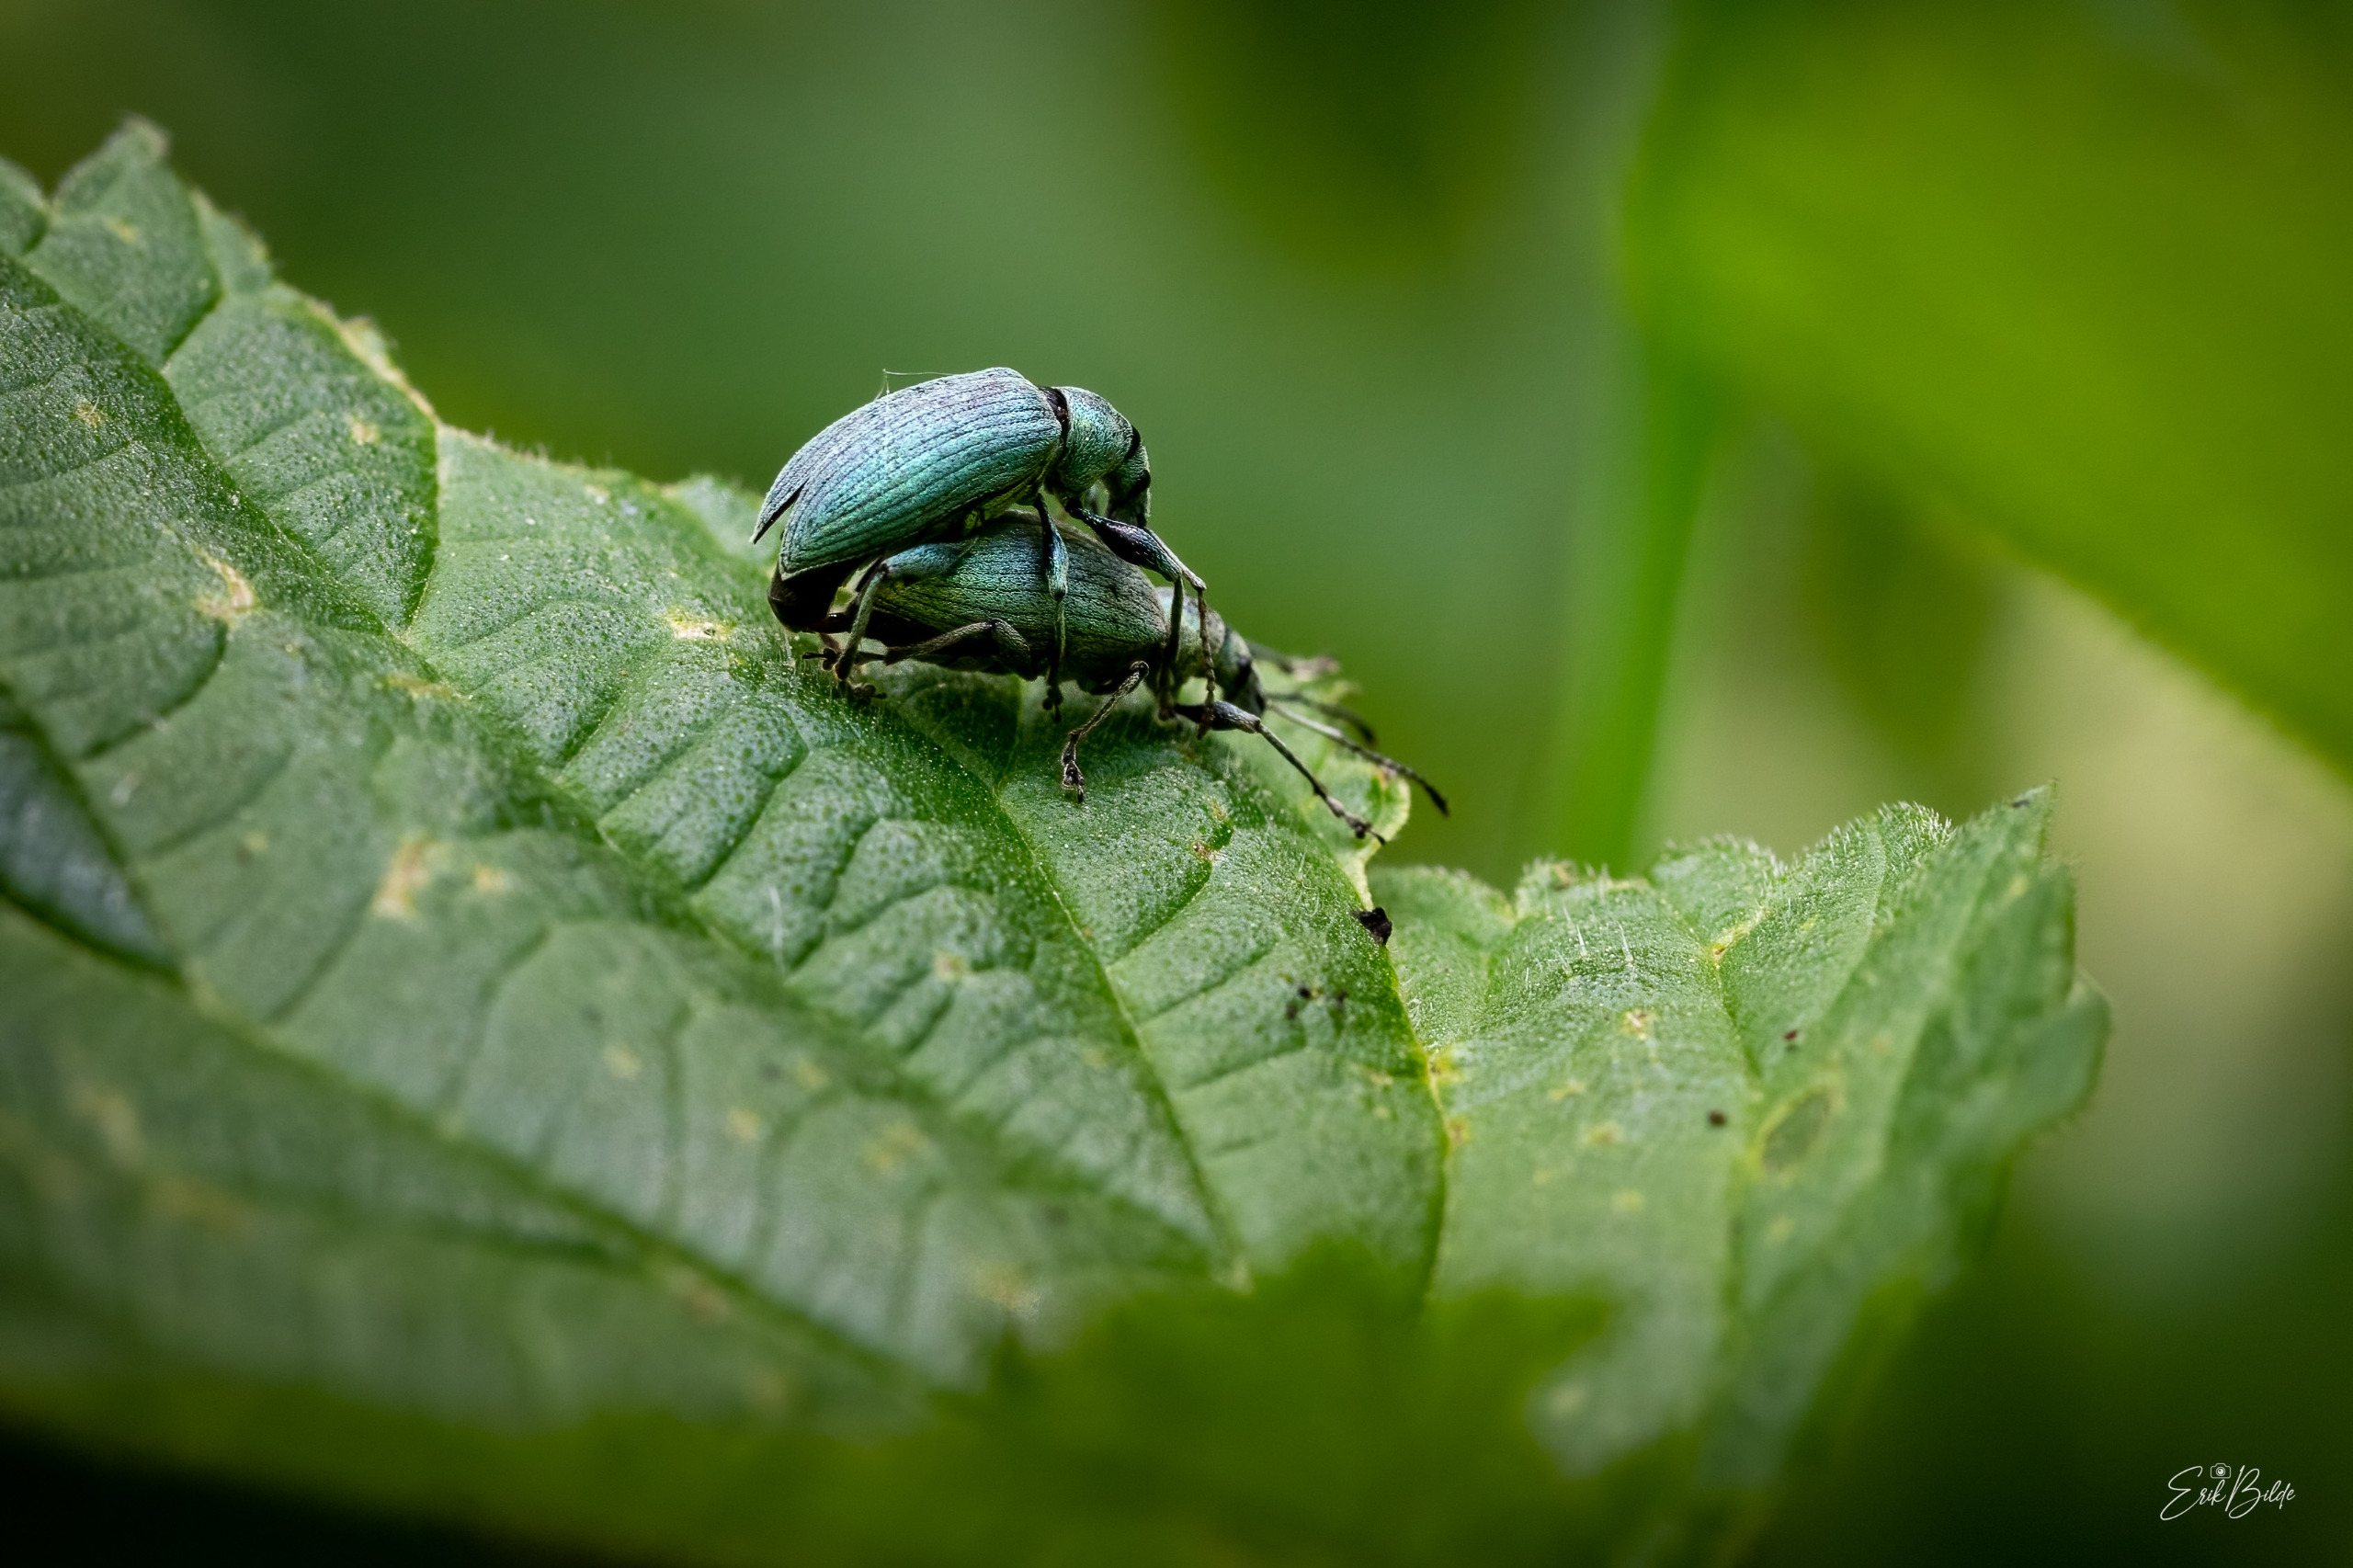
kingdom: Animalia
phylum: Arthropoda
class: Insecta
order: Coleoptera
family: Curculionidae
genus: Phyllobius
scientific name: Phyllobius pomaceus
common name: Nældesnudebille
